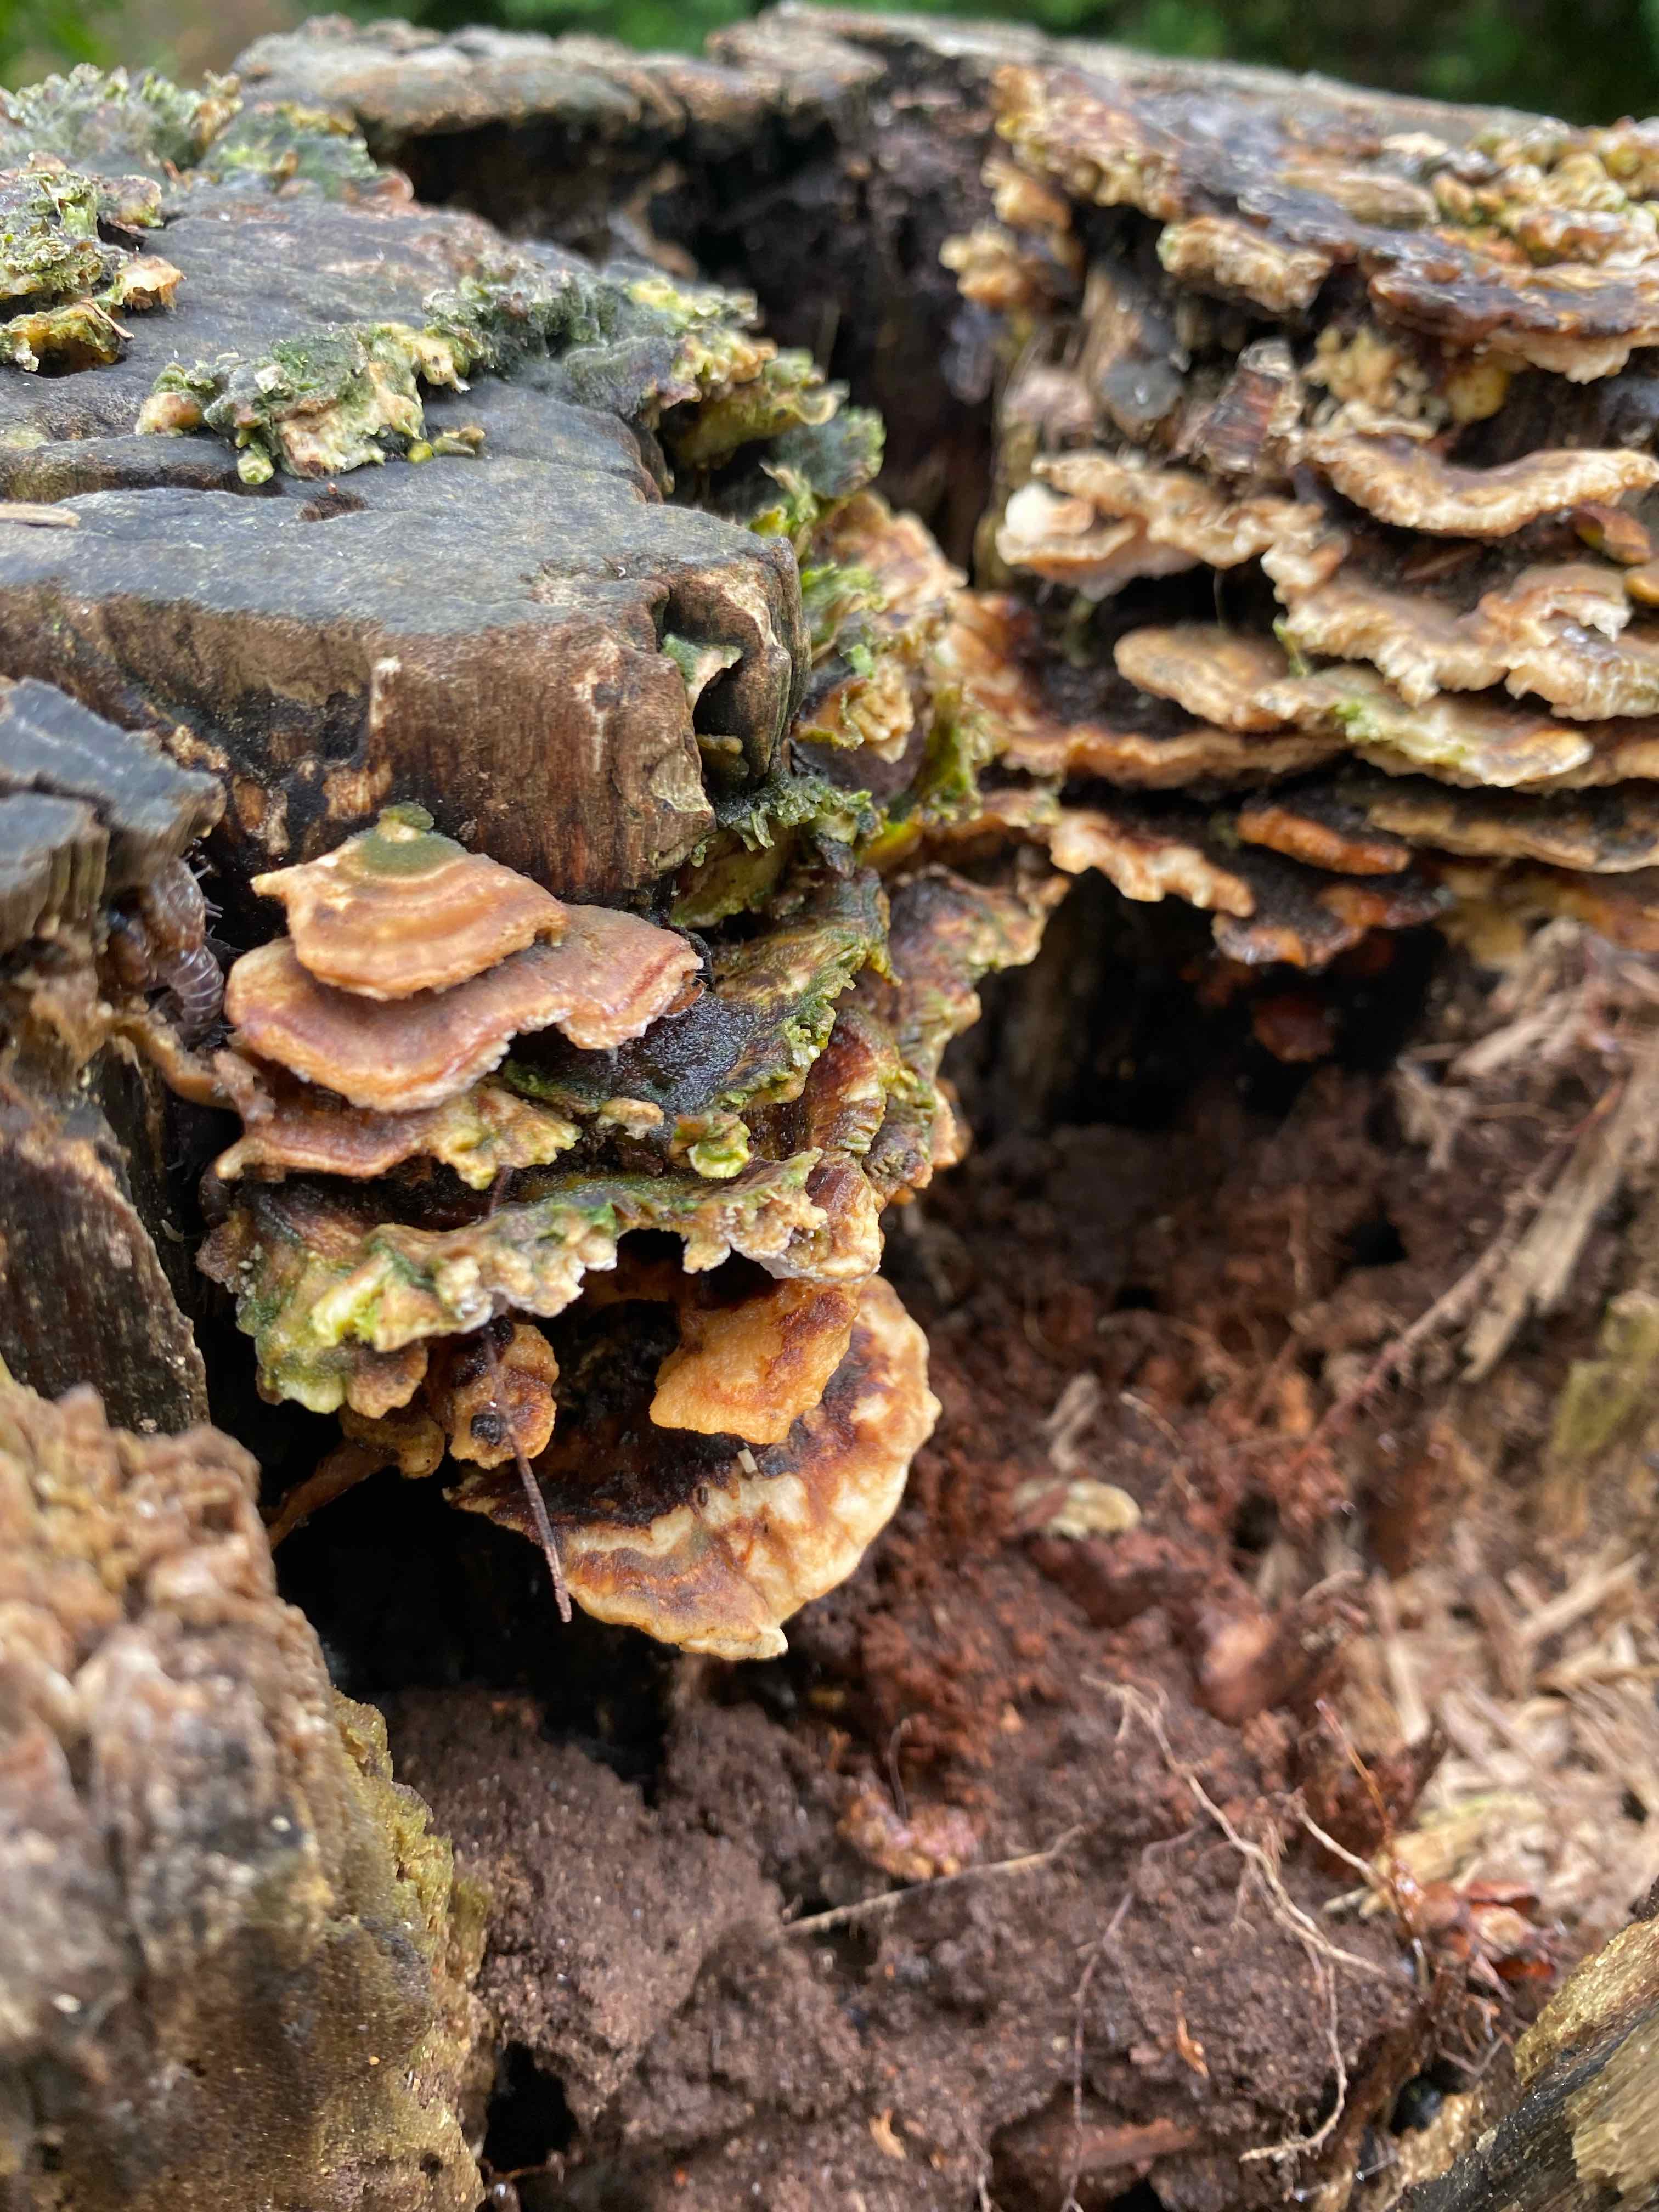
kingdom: Fungi
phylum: Basidiomycota
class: Agaricomycetes
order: Polyporales
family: Polyporaceae
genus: Trametes
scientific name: Trametes versicolor
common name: broget læderporesvamp
